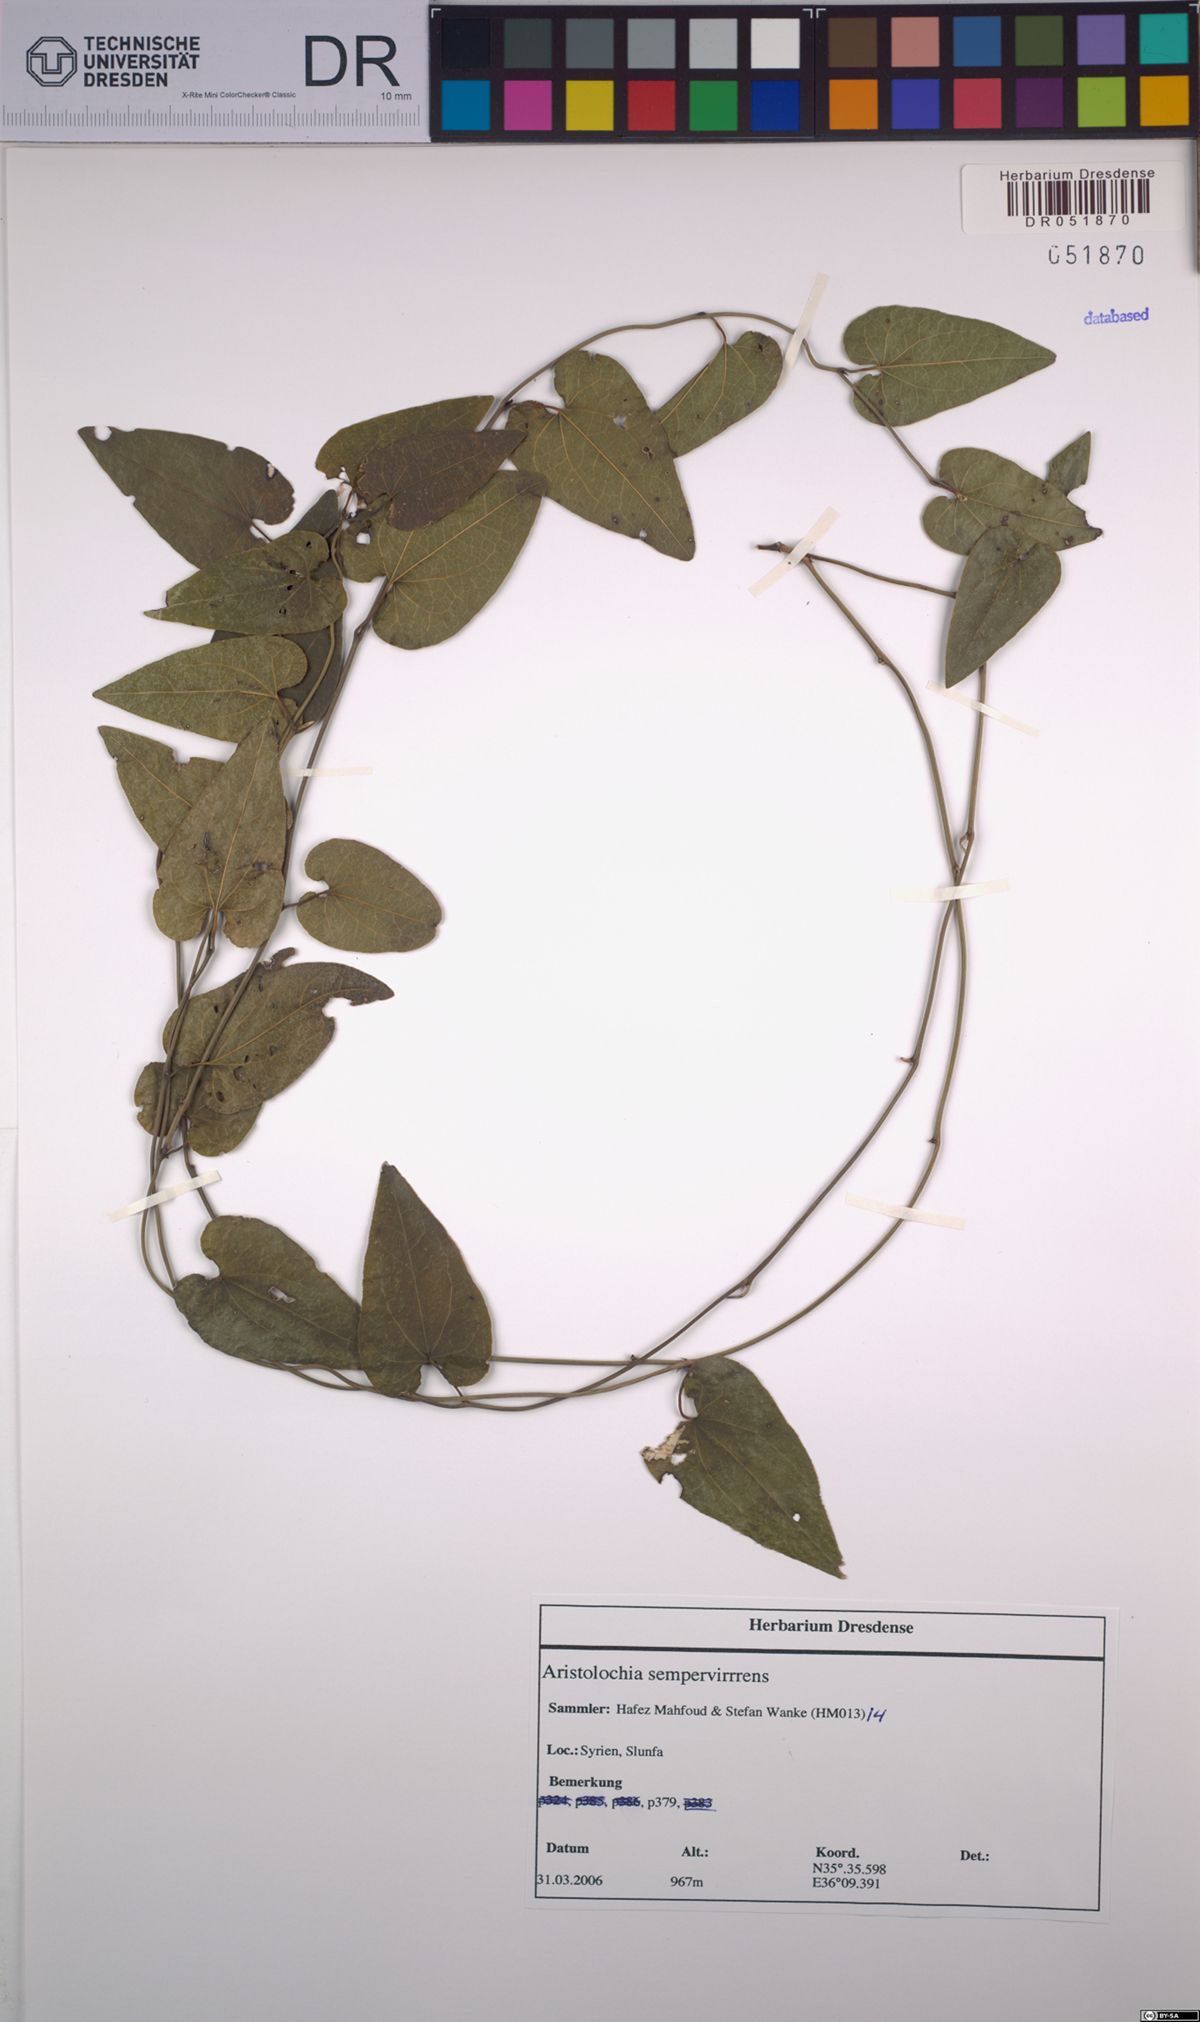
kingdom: Plantae
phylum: Tracheophyta
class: Magnoliopsida
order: Piperales
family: Aristolochiaceae
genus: Aristolochia
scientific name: Aristolochia sempervirens
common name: Long birthwort
